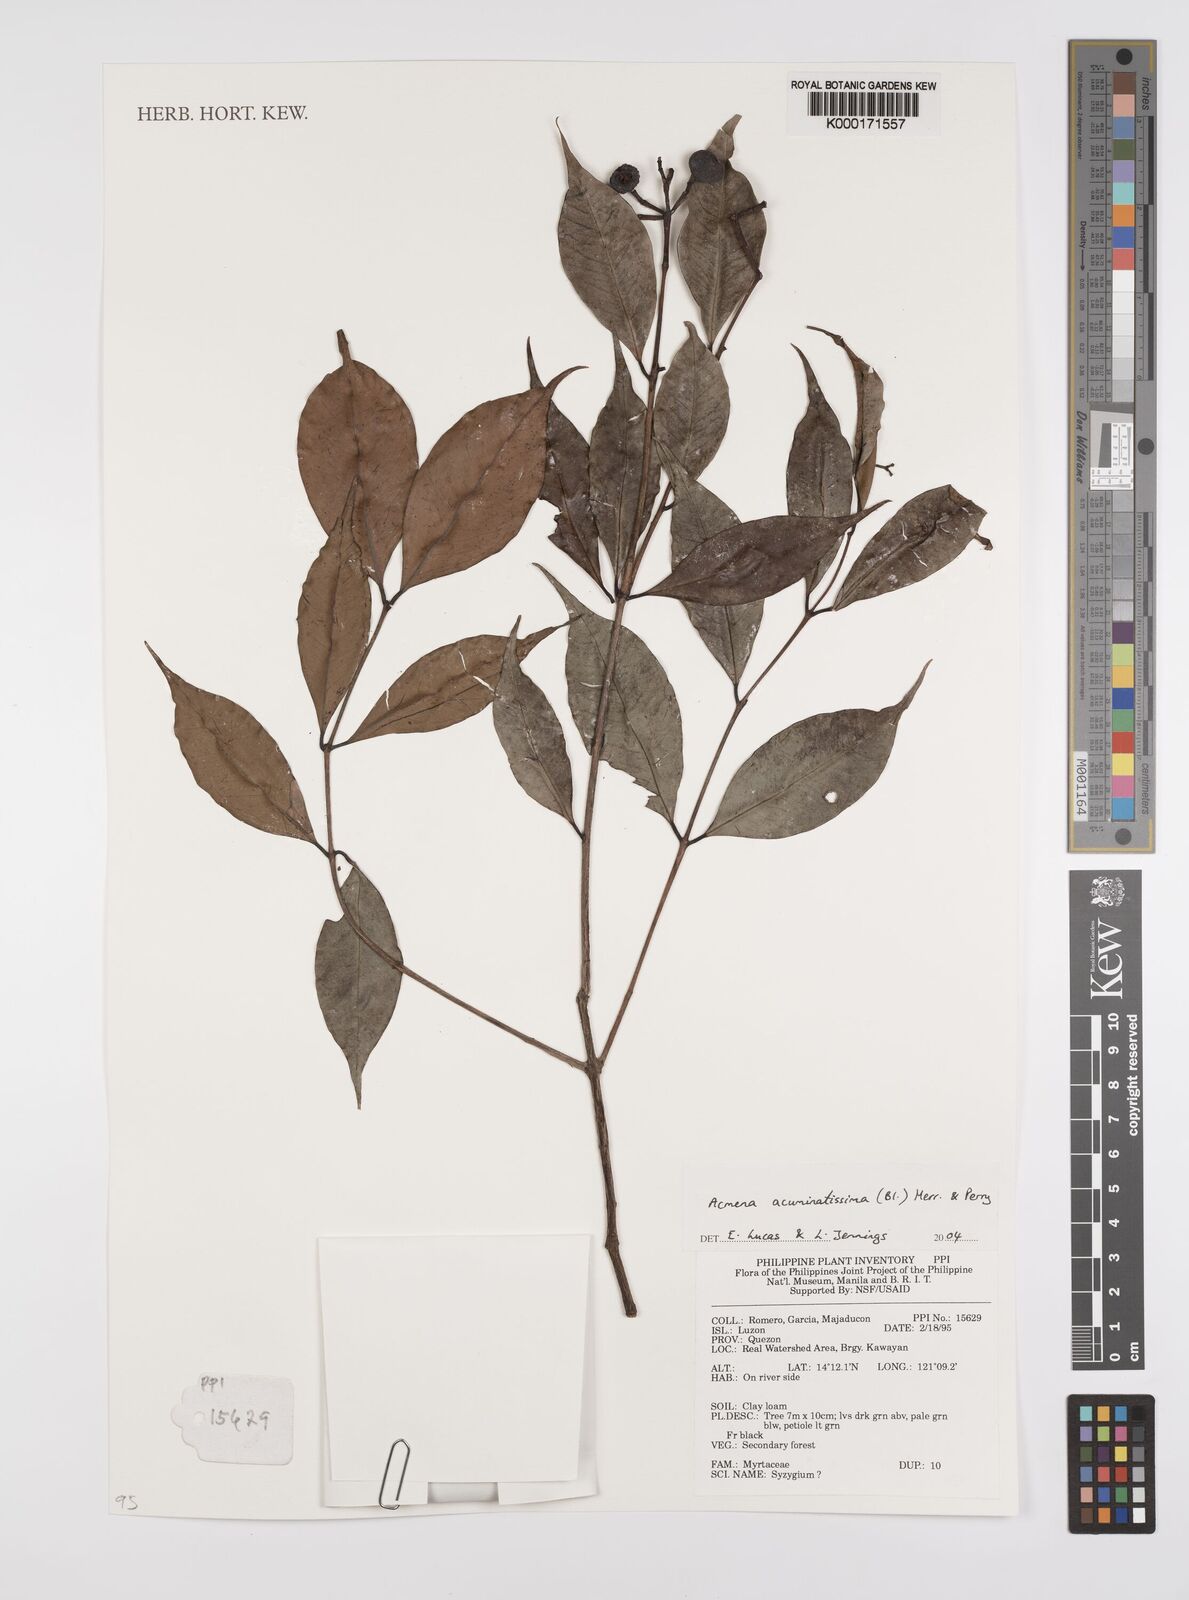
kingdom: Plantae
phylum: Tracheophyta
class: Magnoliopsida
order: Myrtales
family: Myrtaceae
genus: Syzygium
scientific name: Syzygium acuminatissimum
